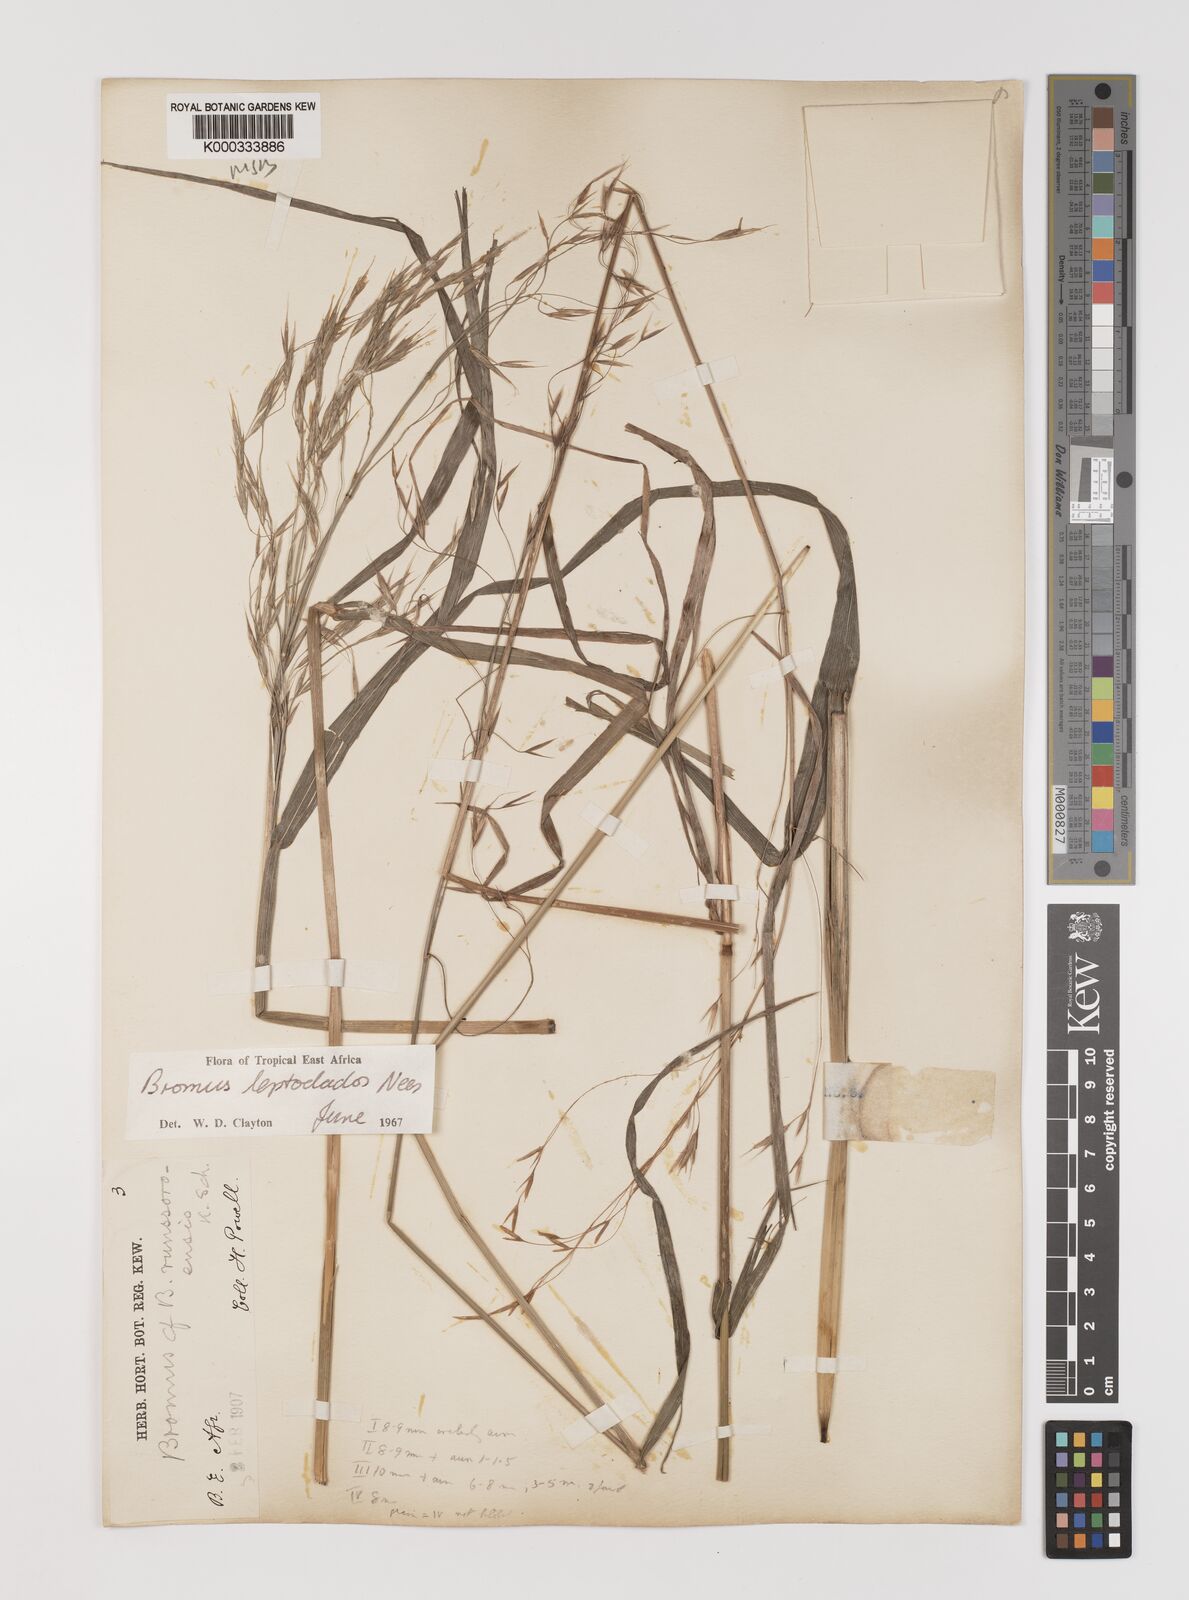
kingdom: Plantae
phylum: Tracheophyta
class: Liliopsida
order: Poales
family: Poaceae
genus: Bromus
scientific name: Bromus leptoclados
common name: Mountain bromegrass
